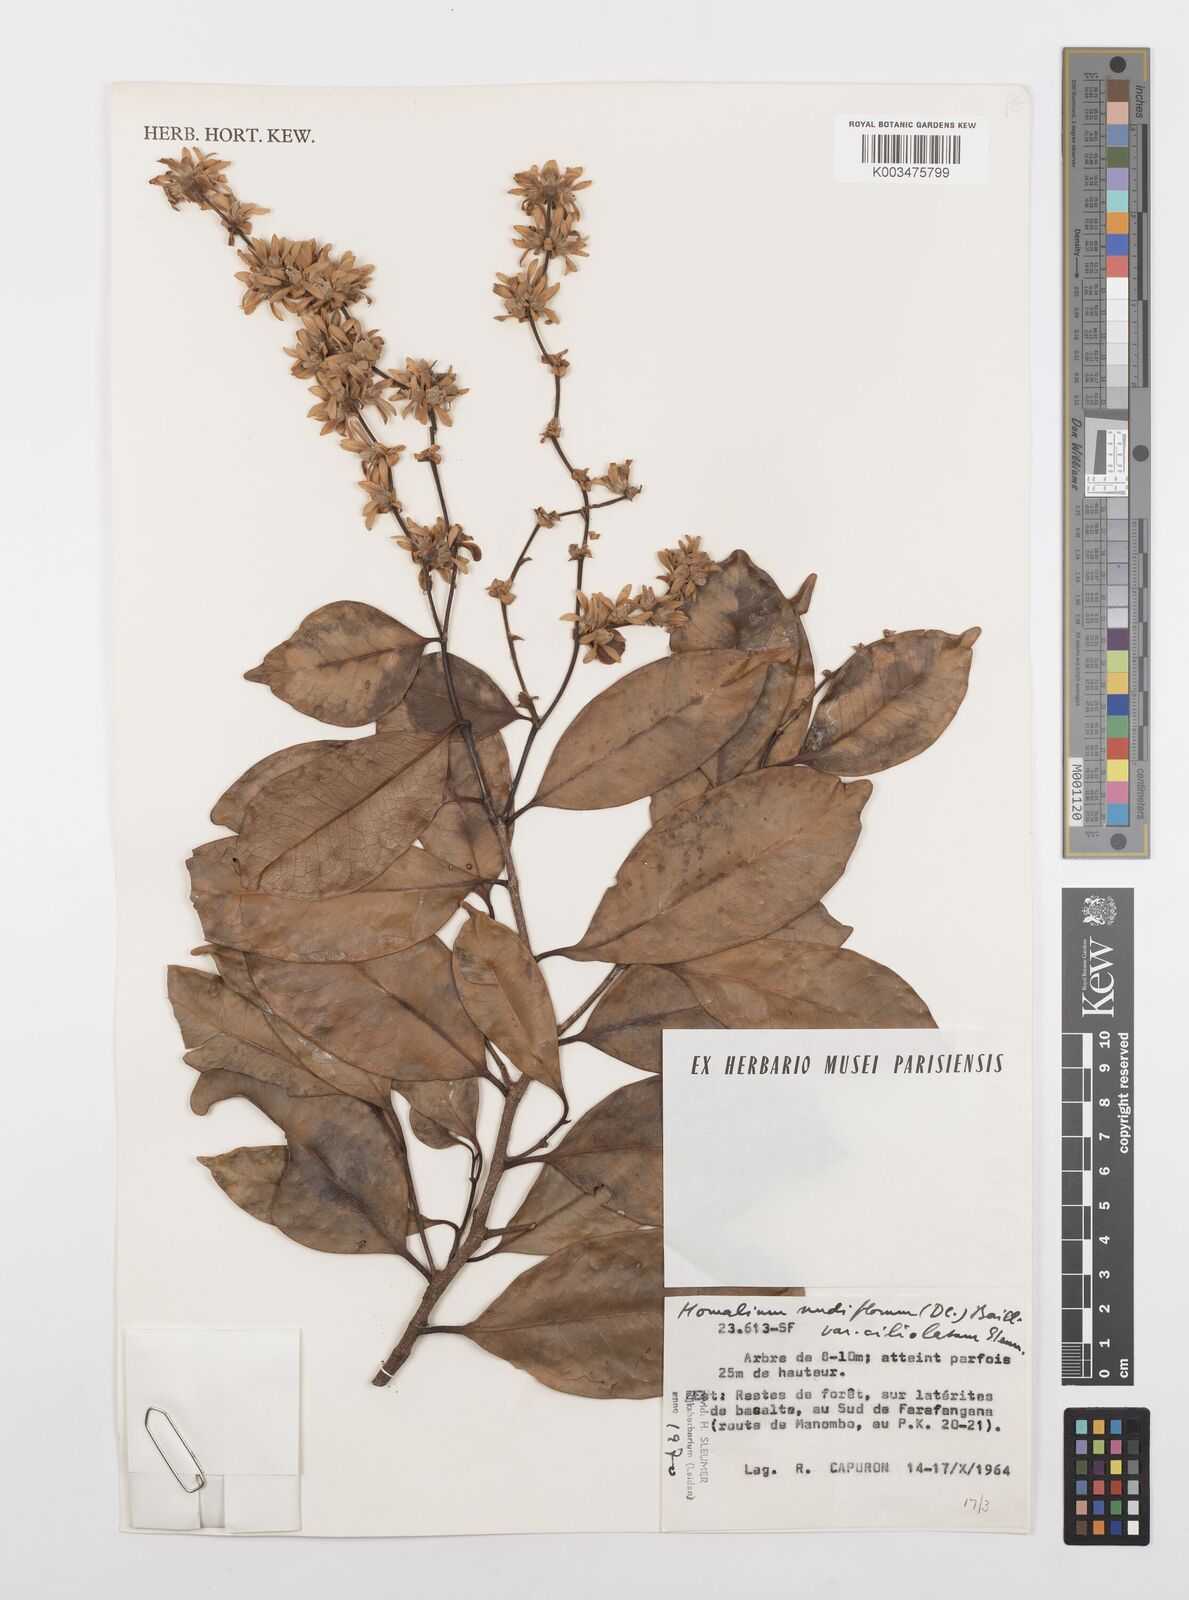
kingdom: Plantae
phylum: Tracheophyta
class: Magnoliopsida
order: Malpighiales
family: Salicaceae
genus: Homalium
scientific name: Homalium nudiflorum
